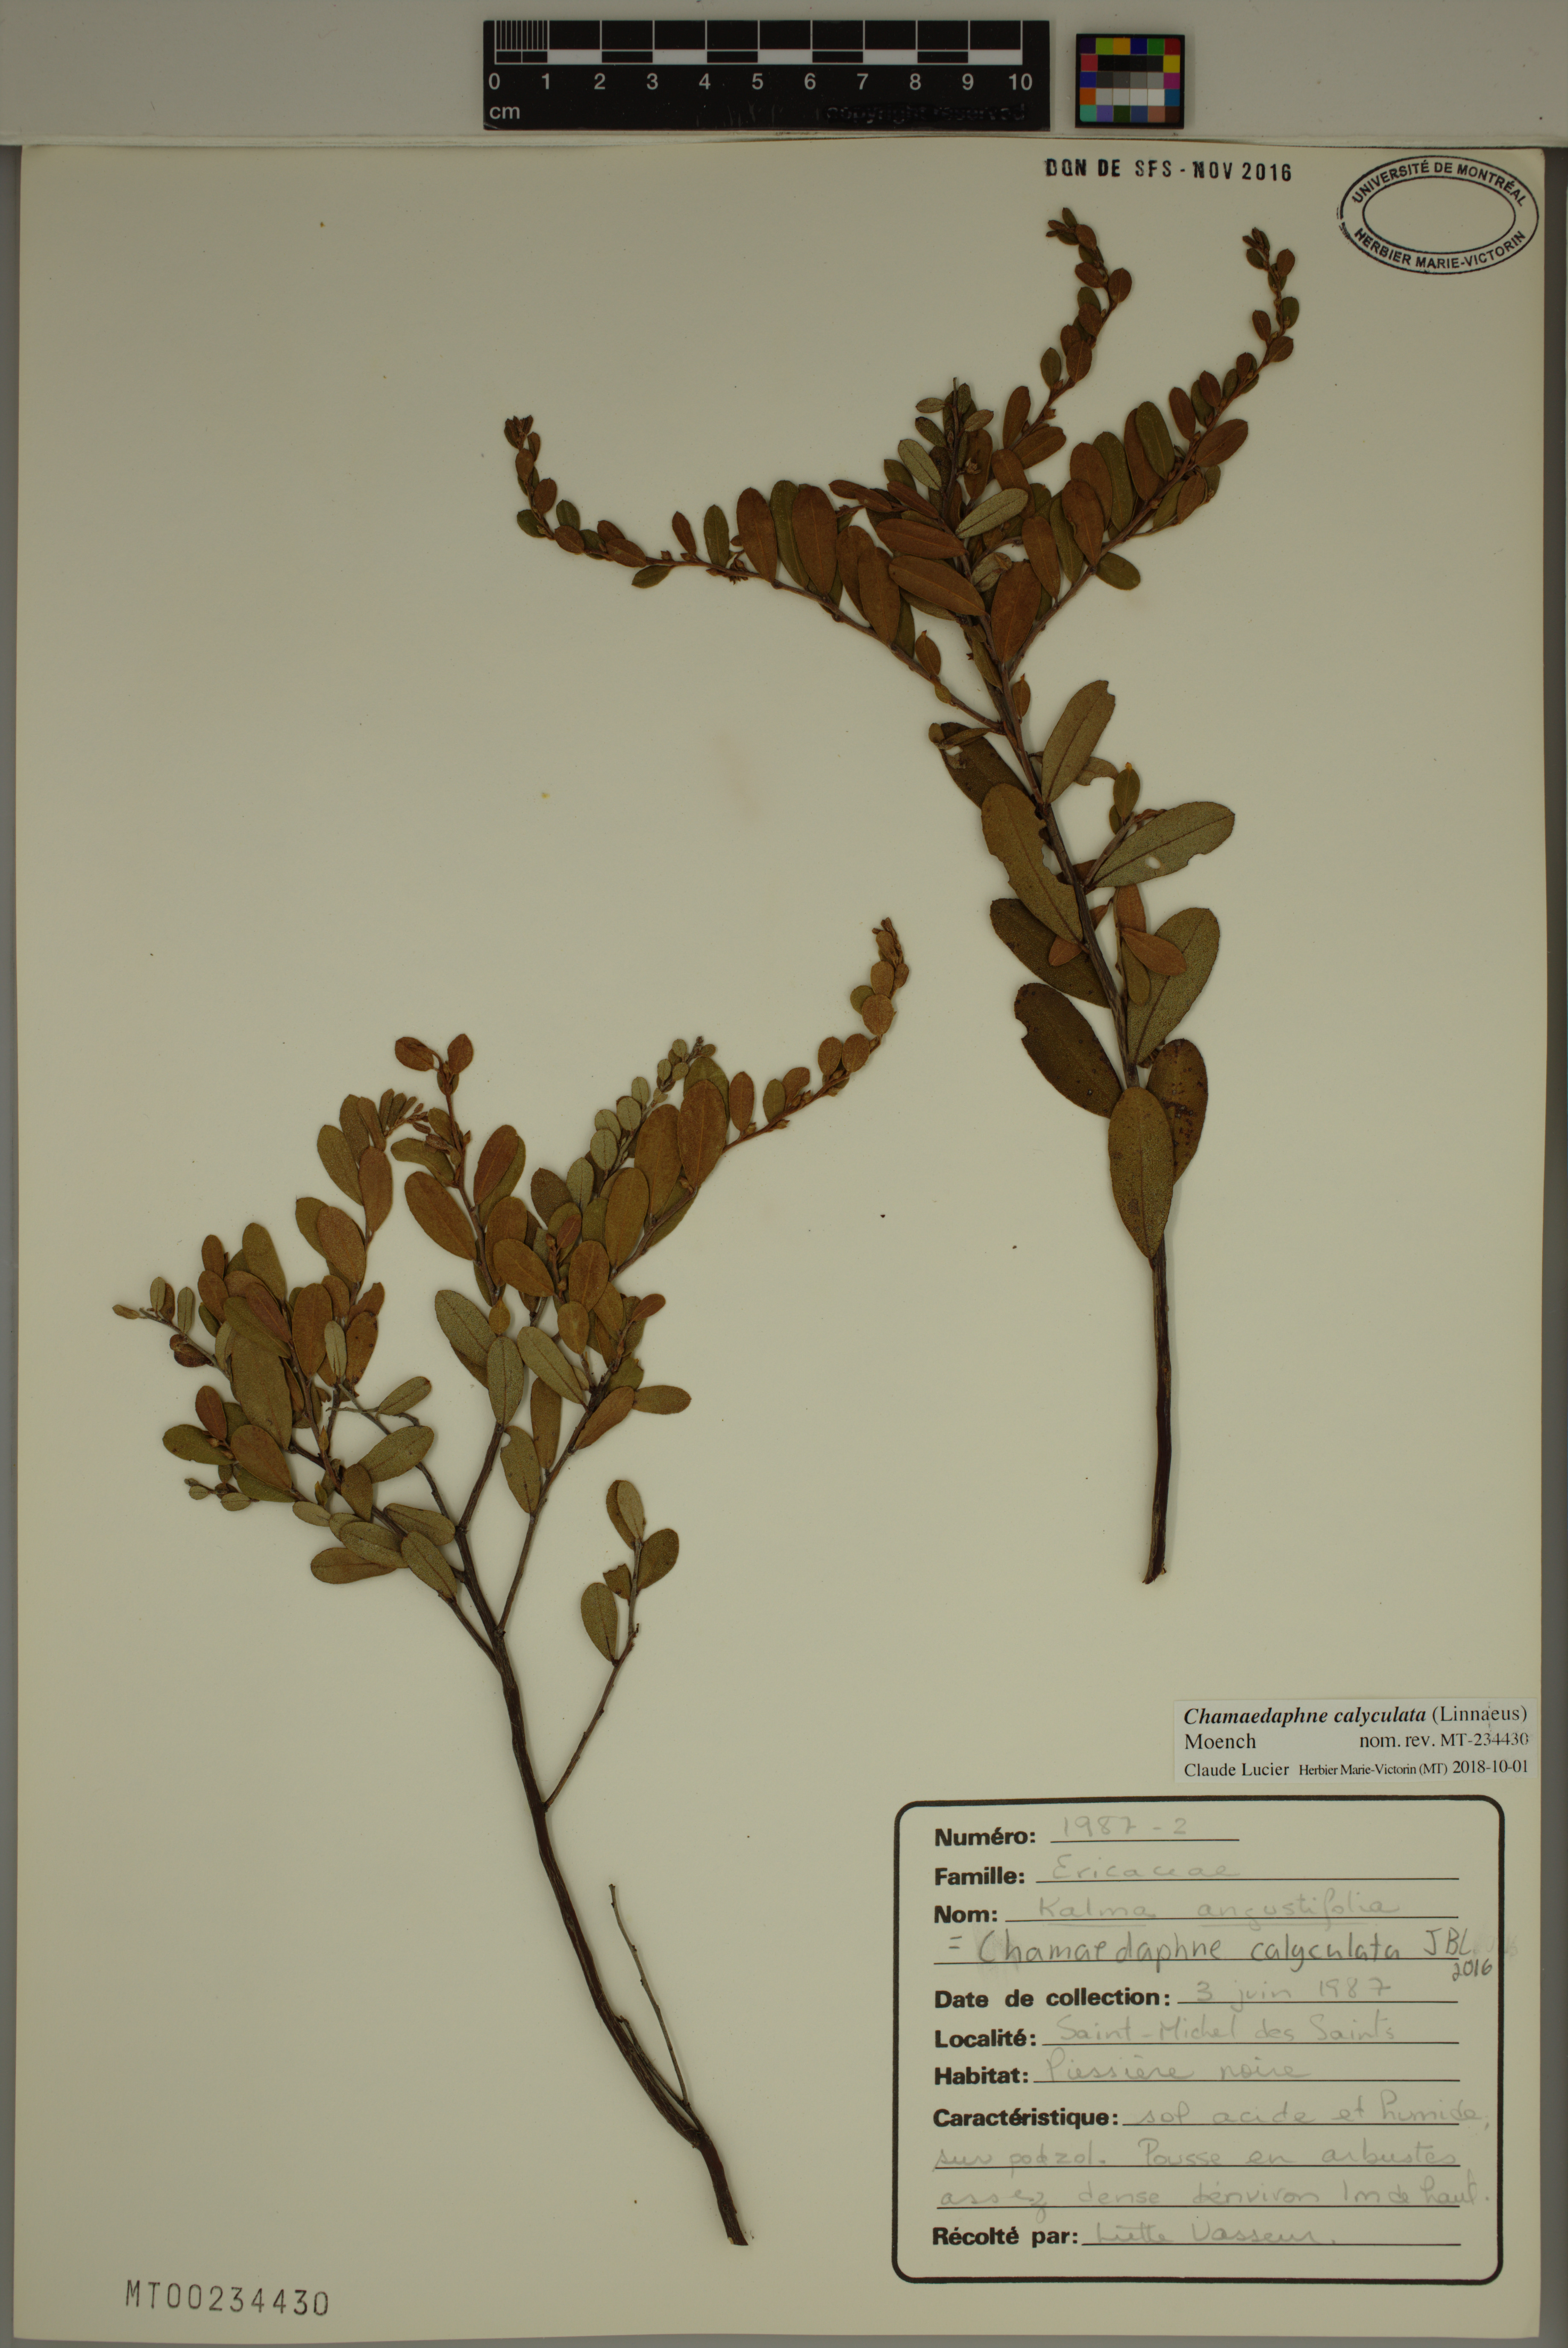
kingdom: Plantae
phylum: Tracheophyta
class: Magnoliopsida
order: Ericales
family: Ericaceae
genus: Chamaedaphne
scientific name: Chamaedaphne calyculata
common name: Leatherleaf
